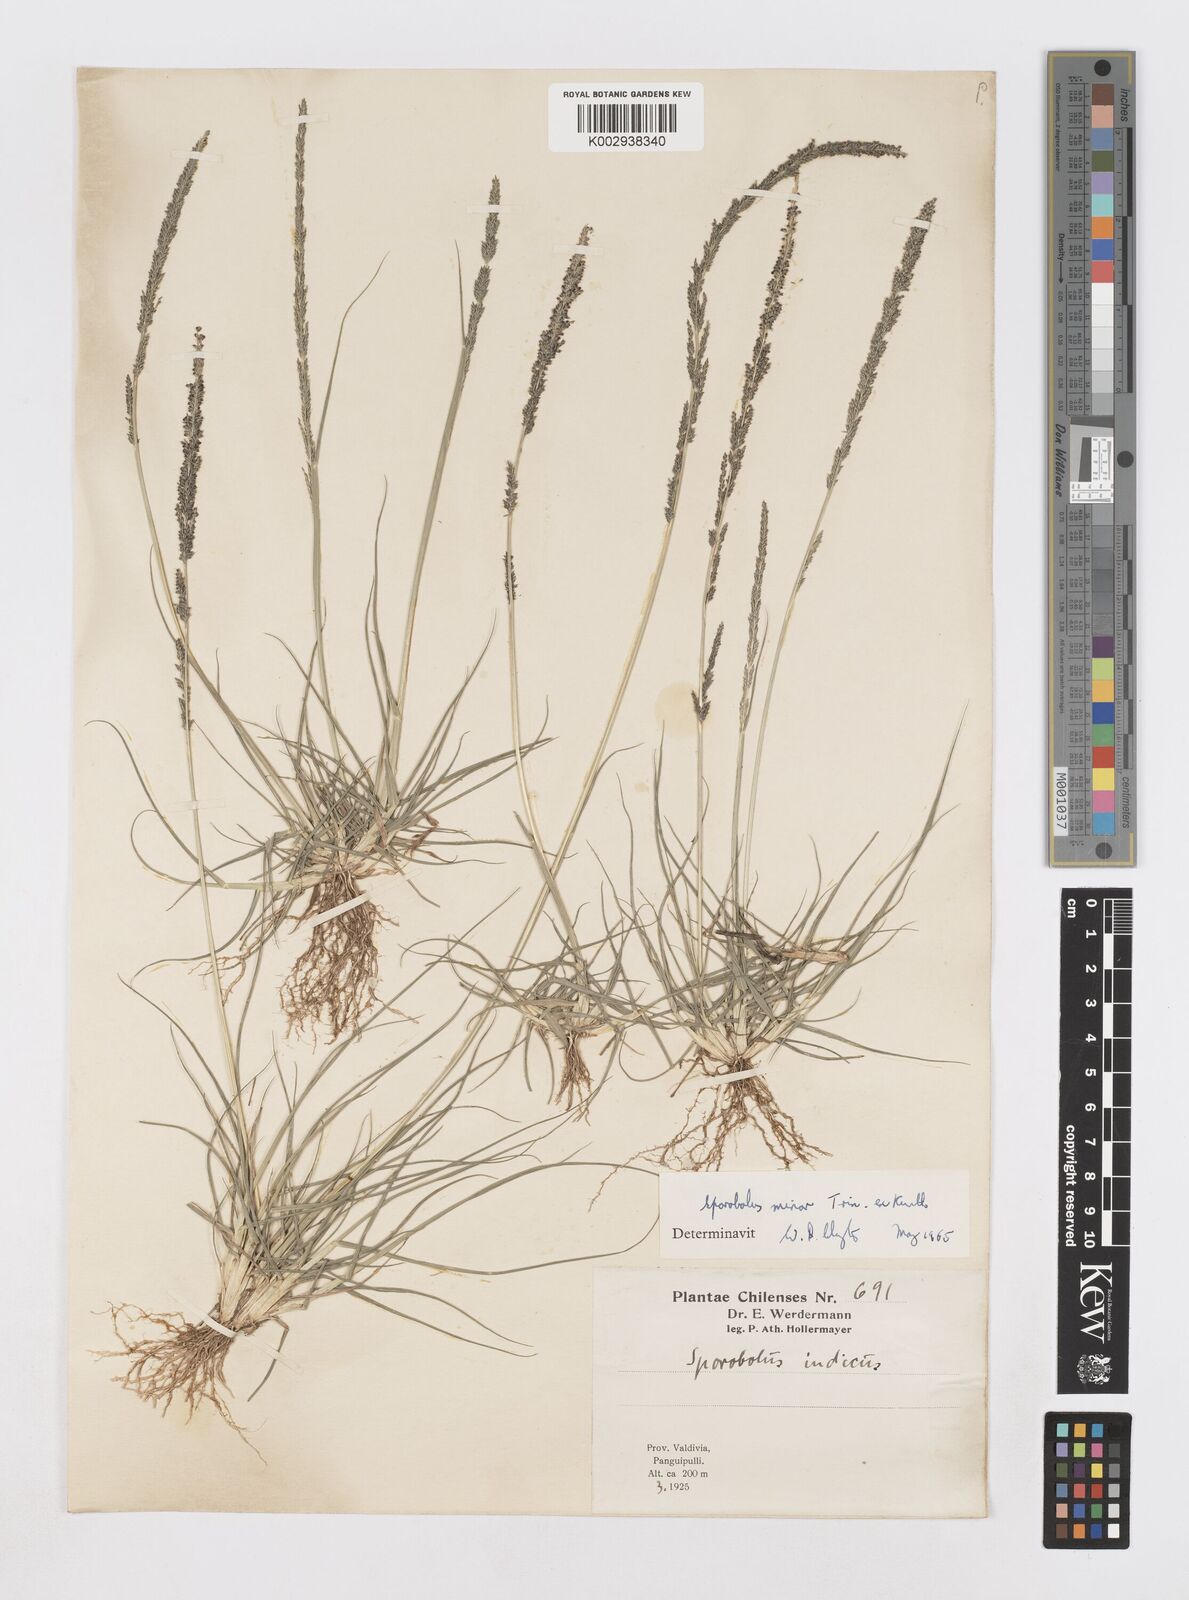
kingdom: Plantae
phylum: Tracheophyta
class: Liliopsida
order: Poales
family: Poaceae
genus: Sporobolus
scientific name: Sporobolus minor
